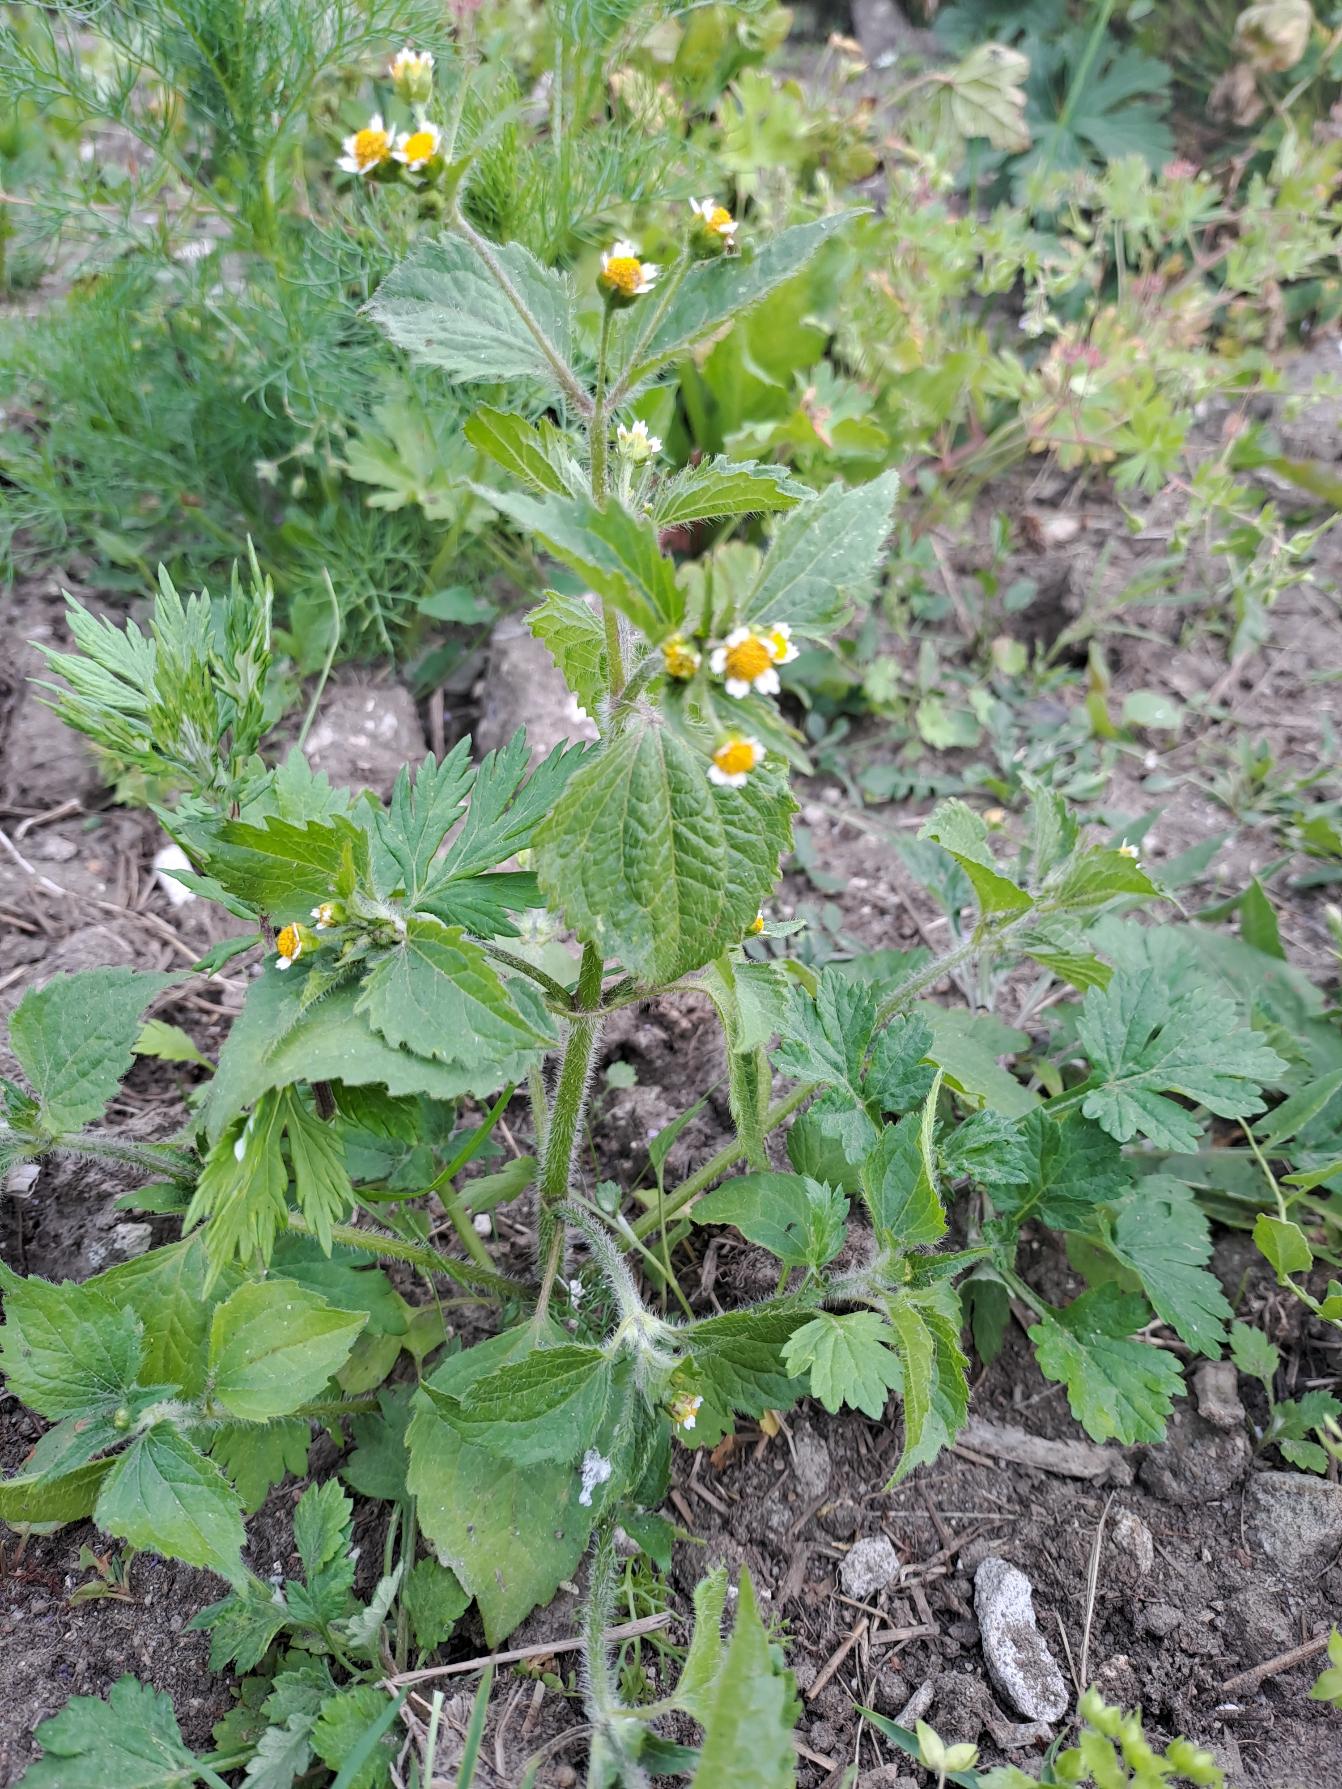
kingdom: Plantae
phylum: Tracheophyta
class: Magnoliopsida
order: Asterales
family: Asteraceae
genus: Galinsoga
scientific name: Galinsoga quadriradiata
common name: Kirtel-kortstråle
